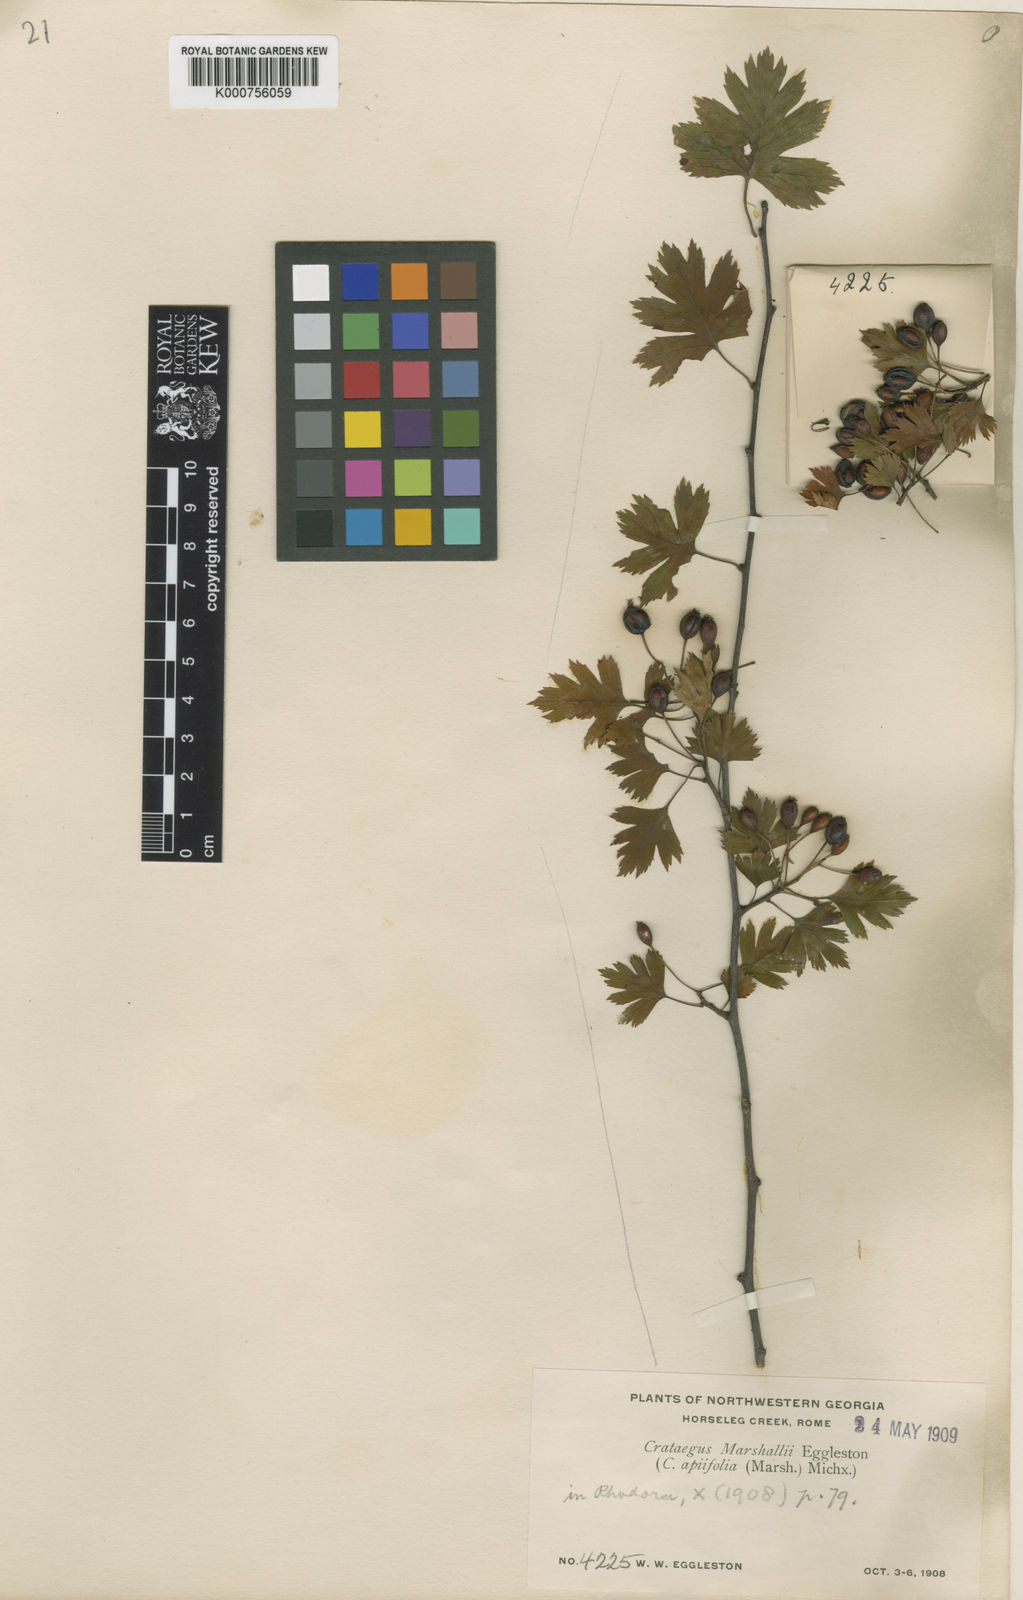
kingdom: Plantae
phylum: Tracheophyta
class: Magnoliopsida
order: Rosales
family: Rosaceae
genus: Crataegus
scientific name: Crataegus monogyna
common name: Hawthorn
